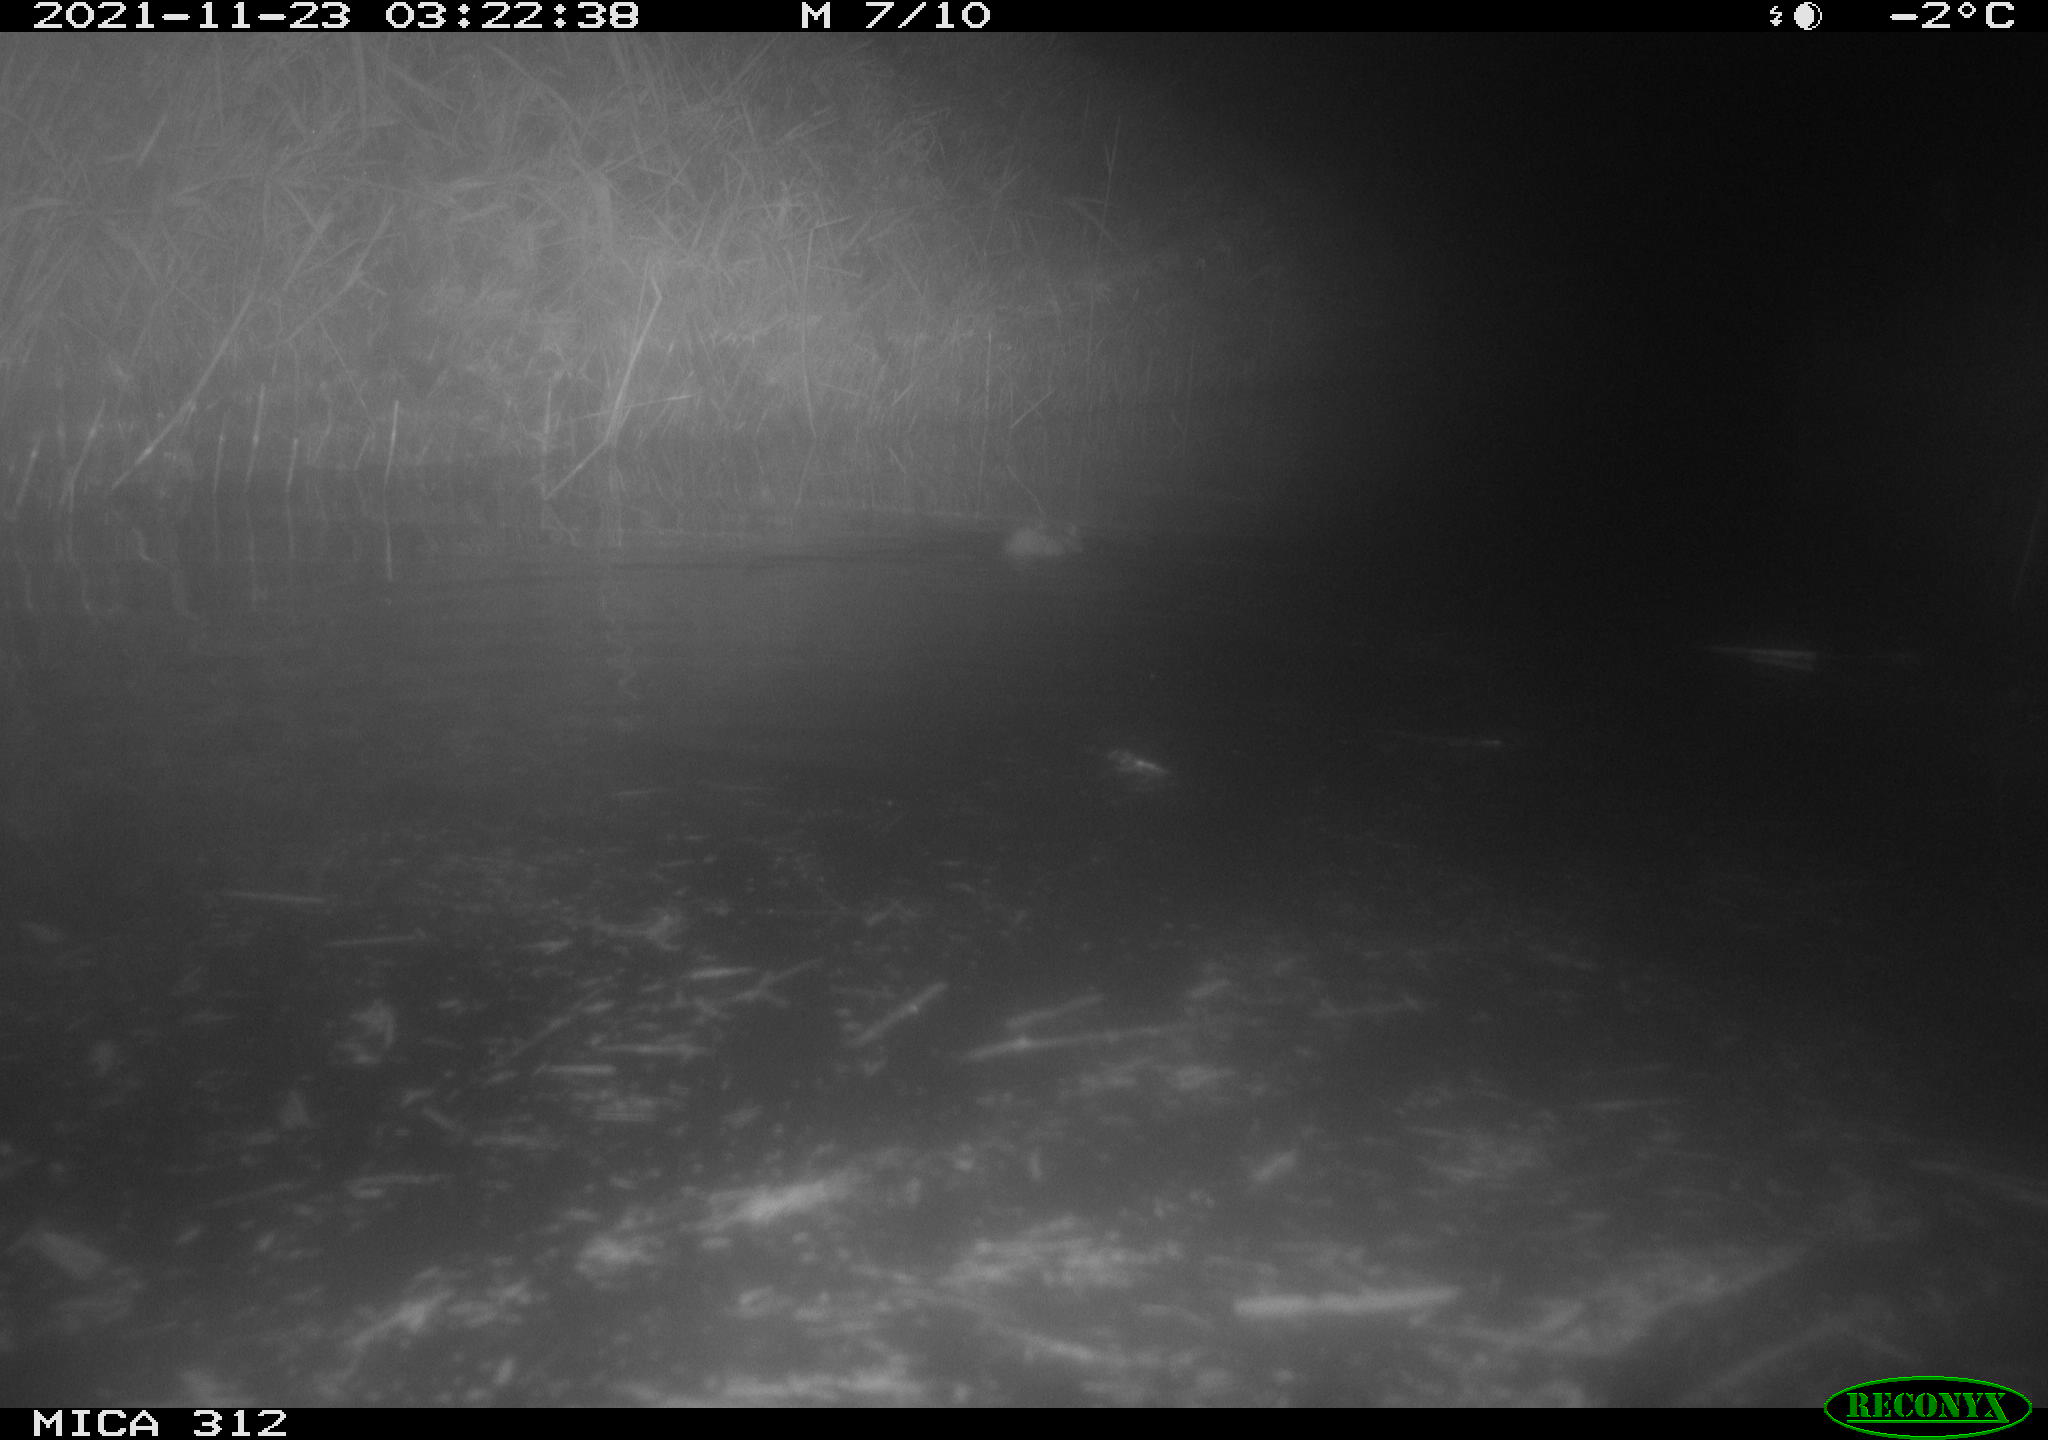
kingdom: Animalia
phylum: Chordata
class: Mammalia
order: Rodentia
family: Muridae
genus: Rattus
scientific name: Rattus norvegicus
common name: Brown rat
